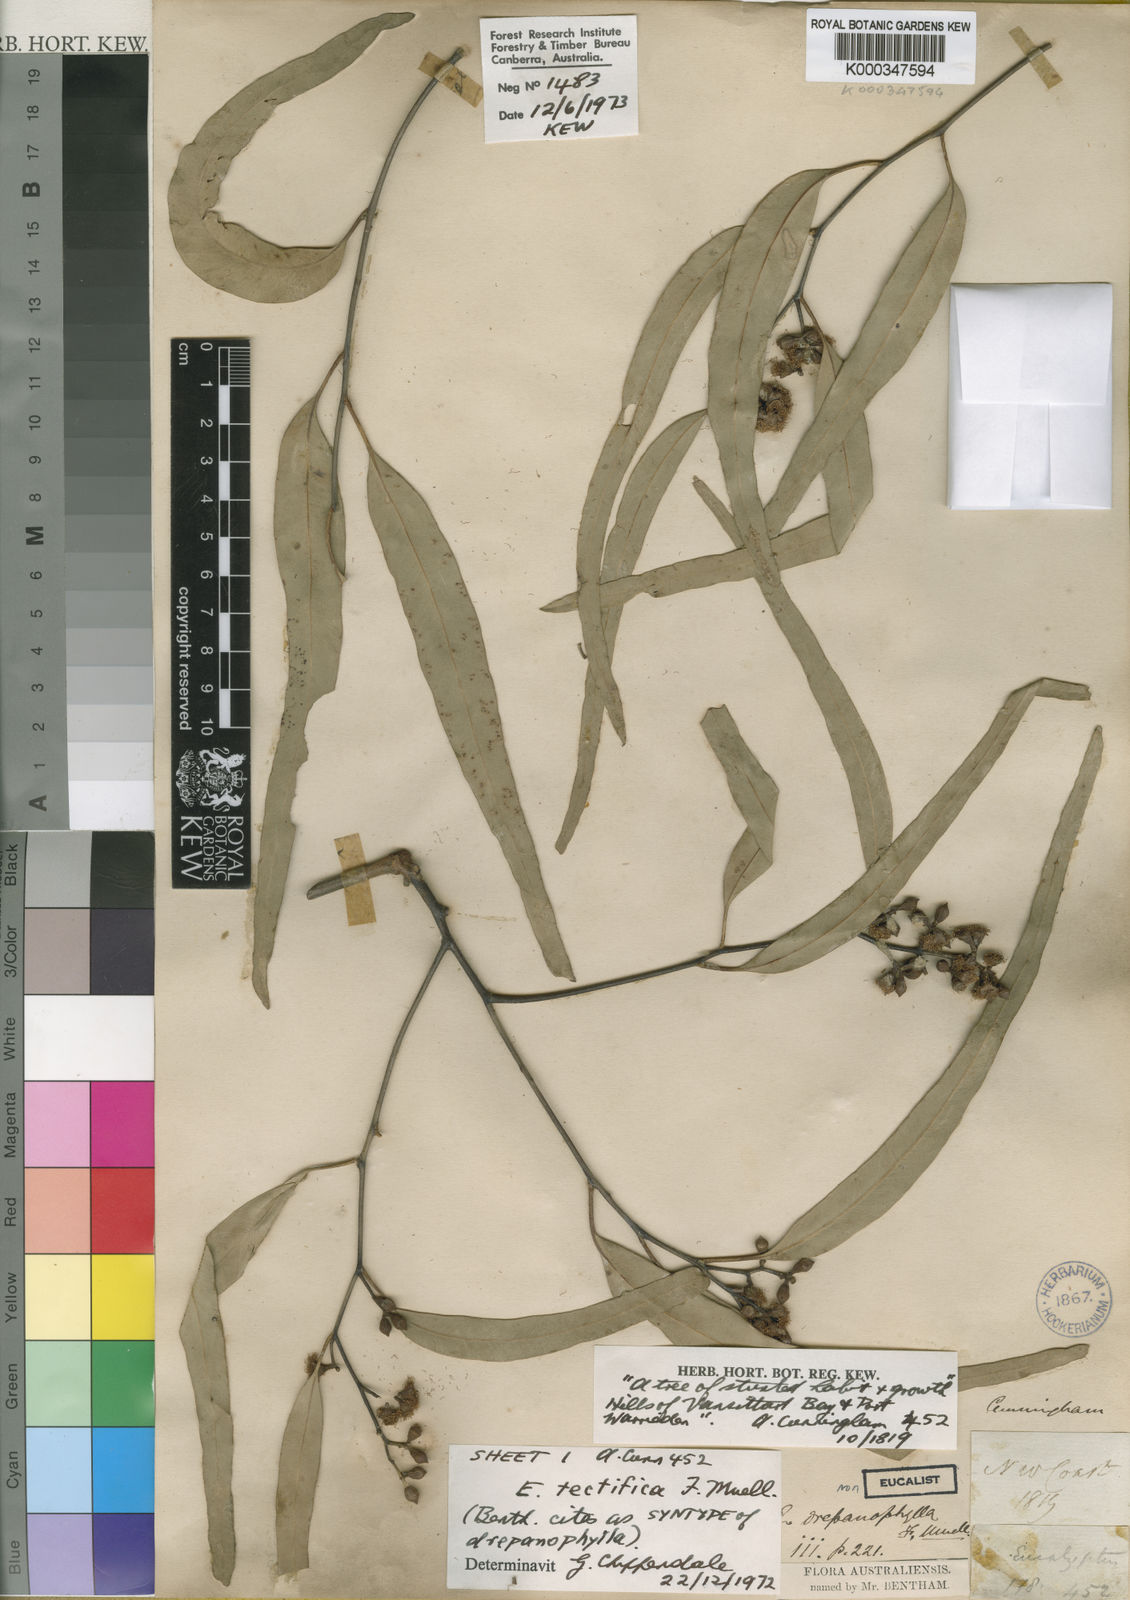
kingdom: Plantae
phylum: Tracheophyta
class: Magnoliopsida
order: Myrtales
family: Myrtaceae
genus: Eucalyptus
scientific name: Eucalyptus tectifica
